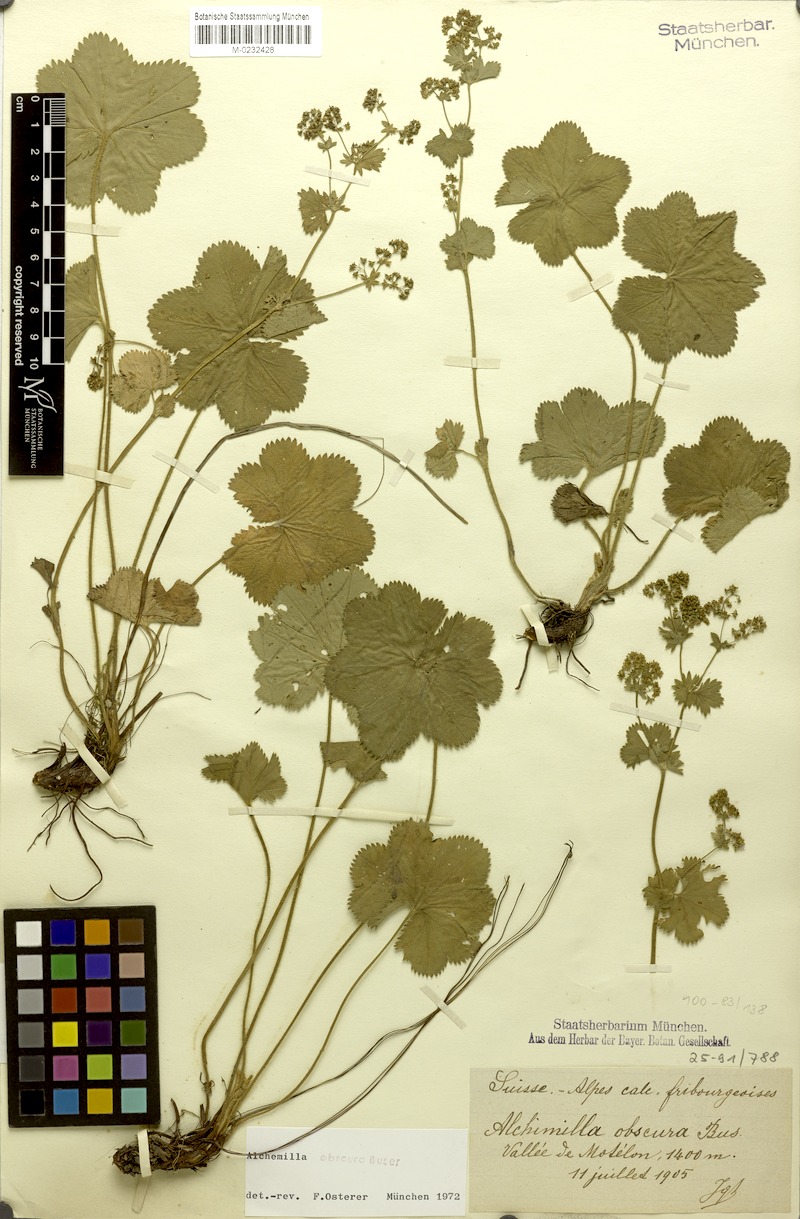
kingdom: Plantae
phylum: Tracheophyta
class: Magnoliopsida
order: Rosales
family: Rosaceae
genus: Alchemilla
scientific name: Alchemilla obscura
